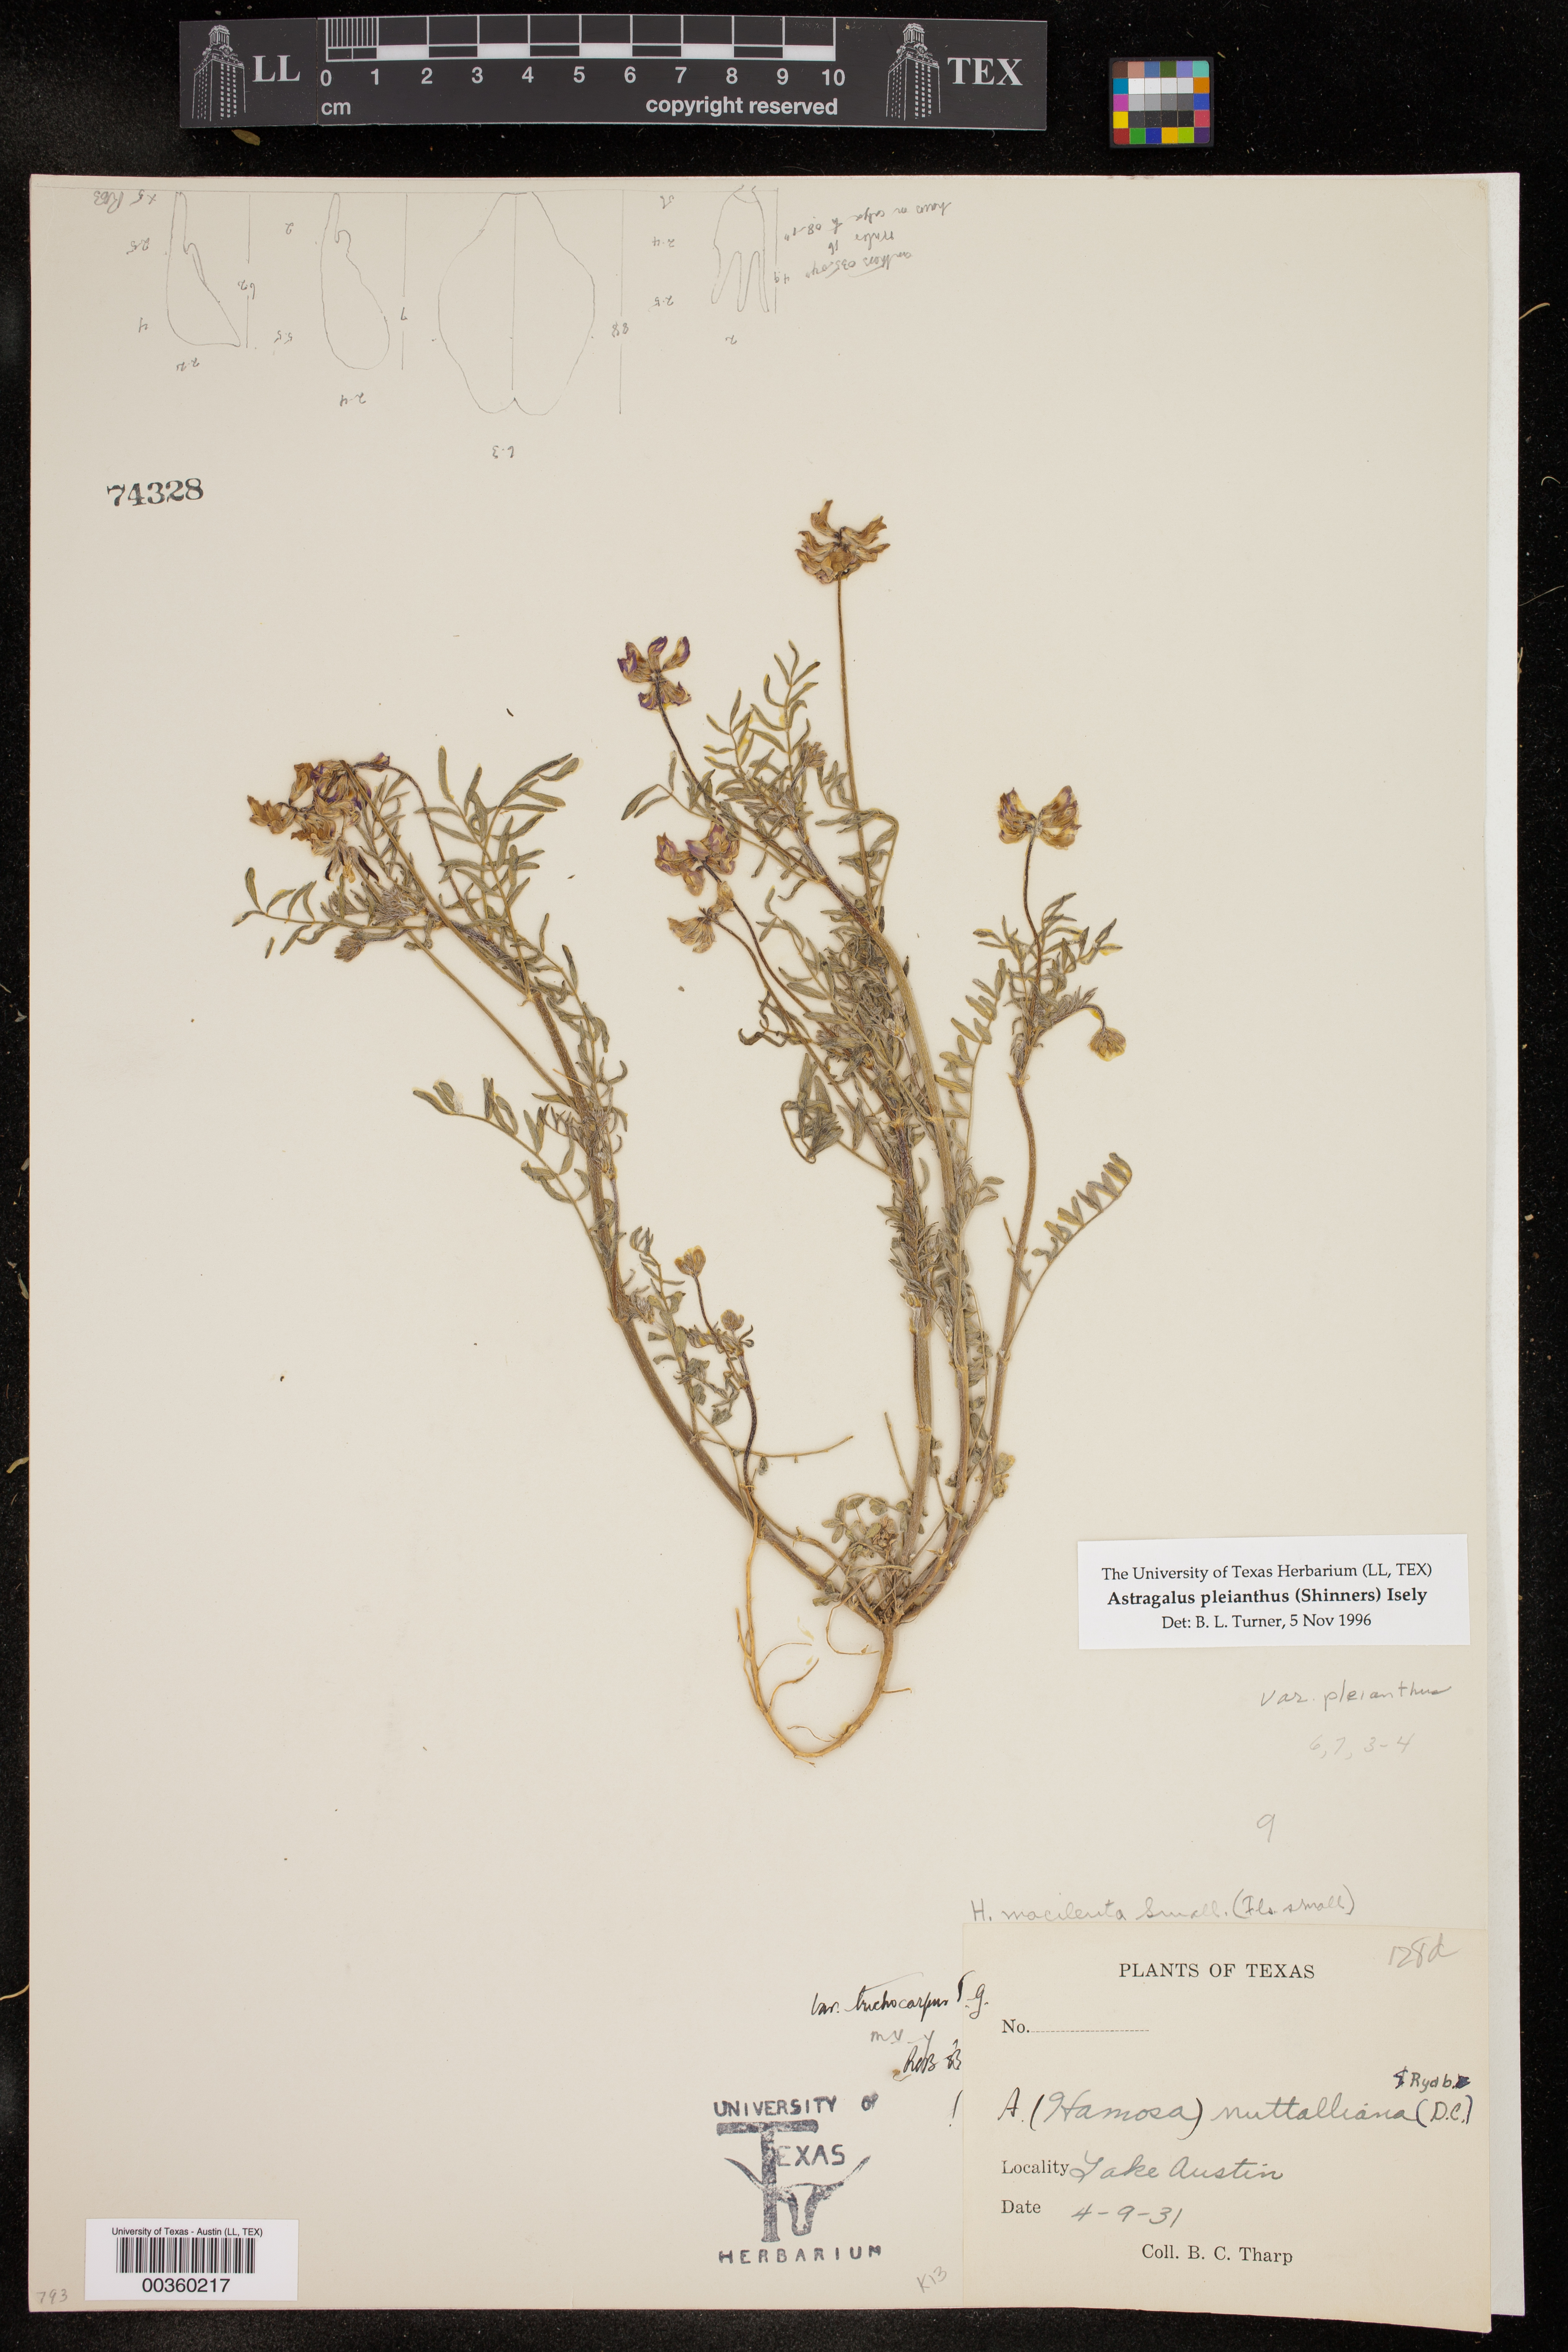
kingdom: Plantae
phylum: Tracheophyta
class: Magnoliopsida
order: Fabales
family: Fabaceae
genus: Astragalus
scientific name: Astragalus pleianthus
